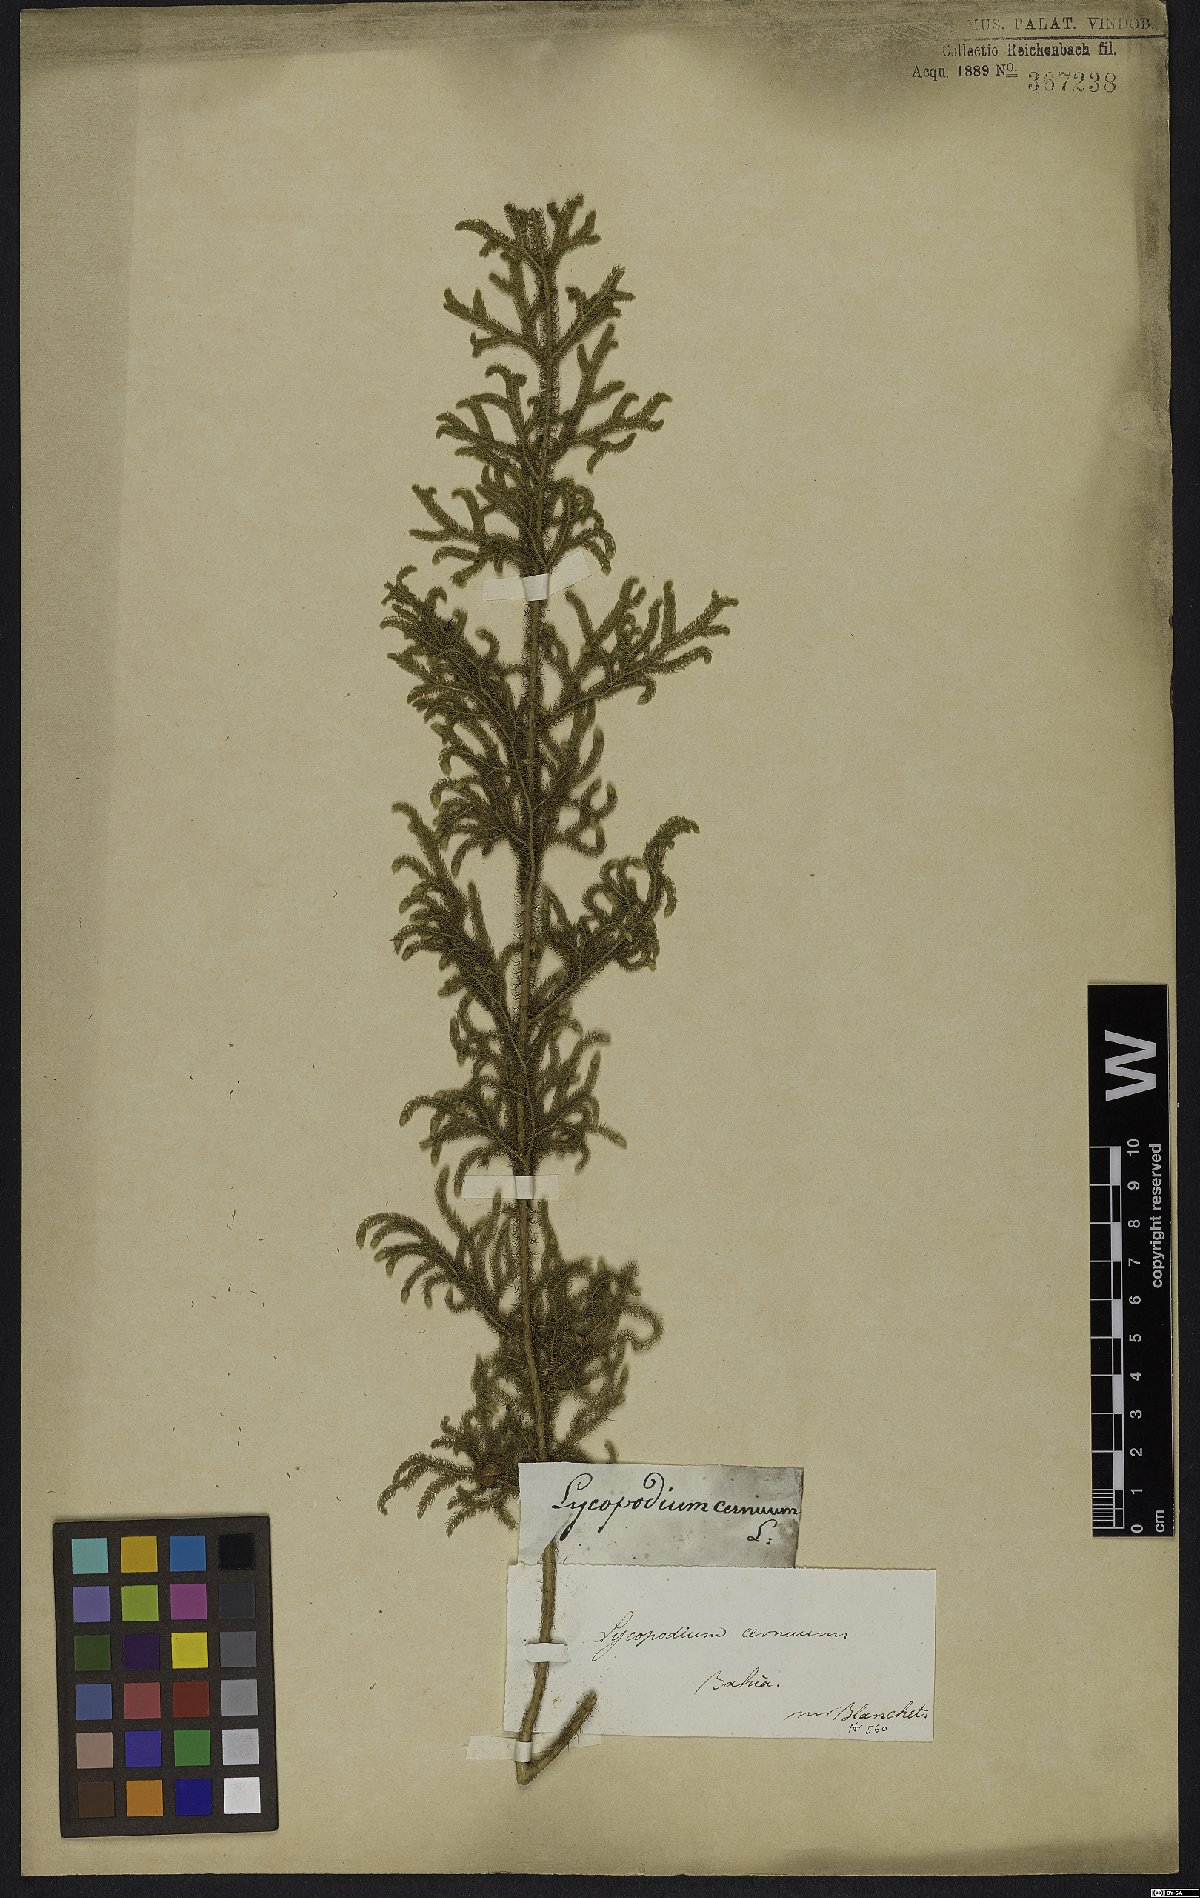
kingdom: Plantae
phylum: Tracheophyta
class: Lycopodiopsida
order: Lycopodiales
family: Lycopodiaceae
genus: Palhinhaea
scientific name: Palhinhaea cernua
